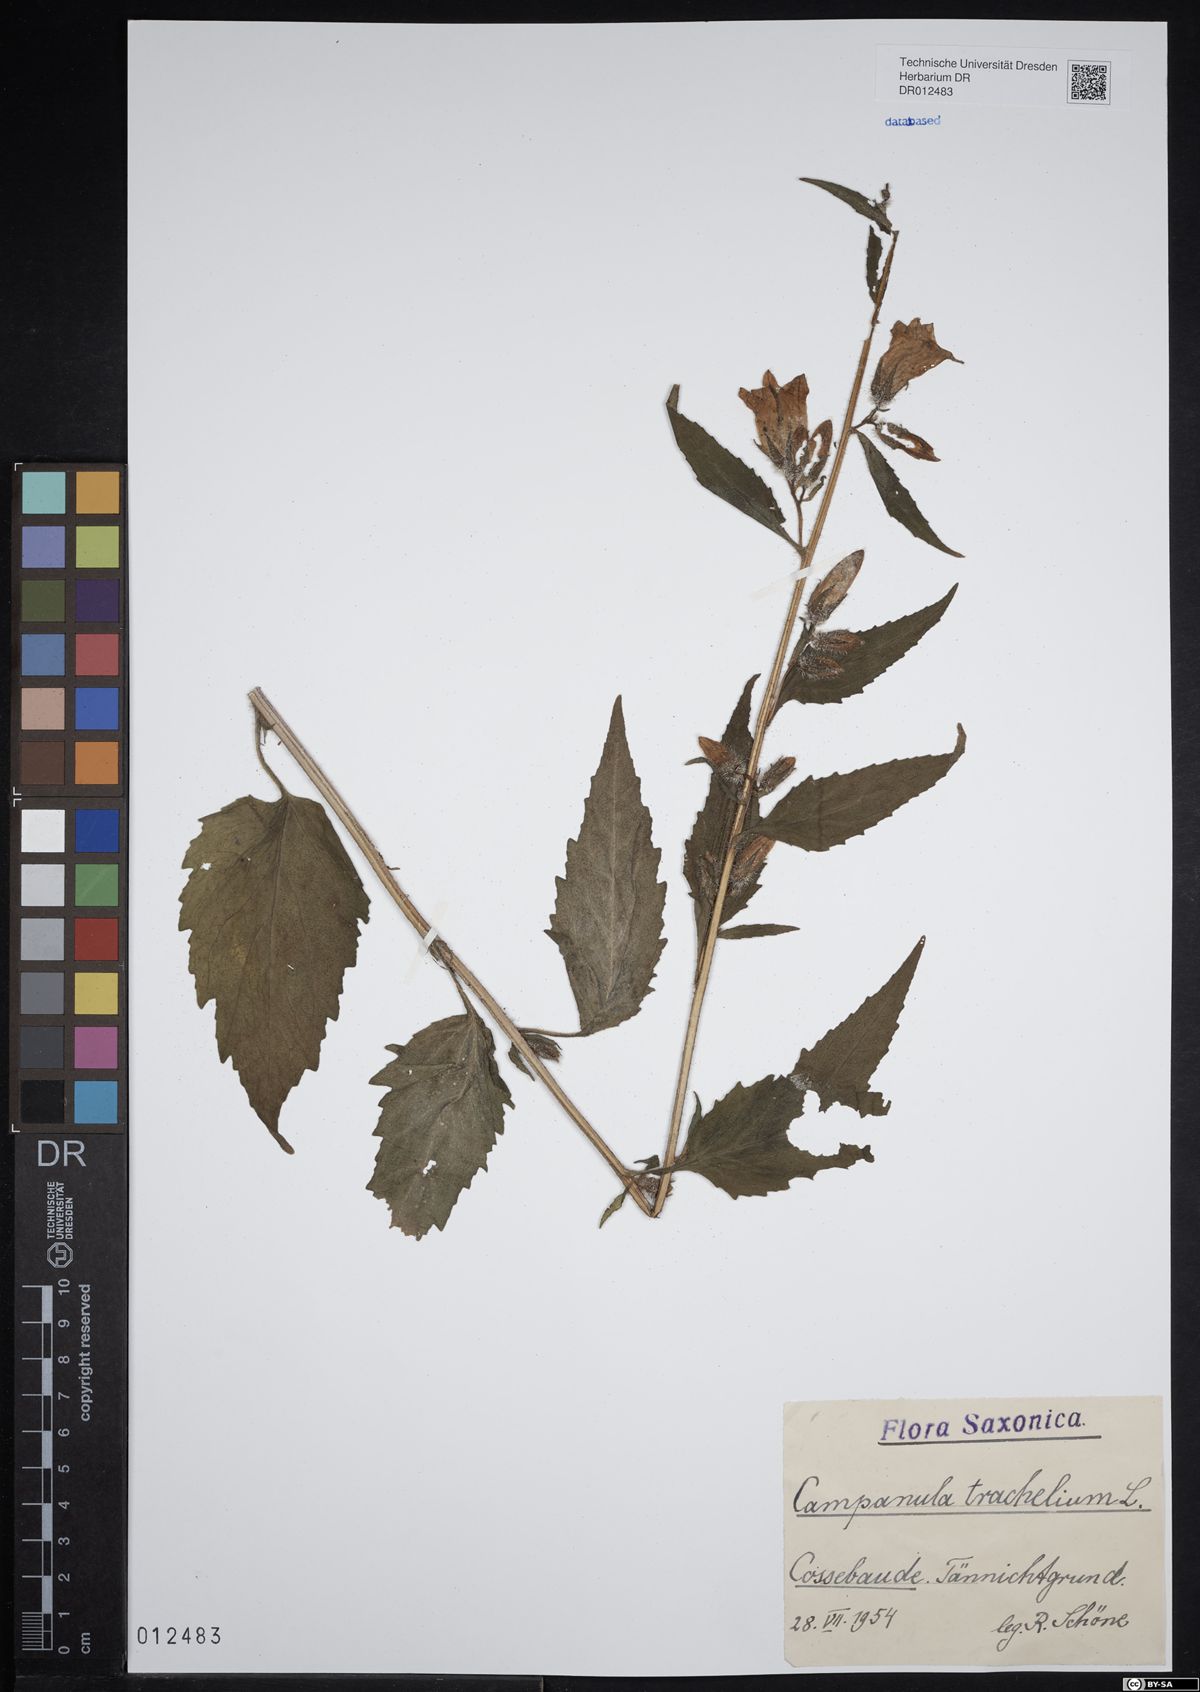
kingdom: Plantae
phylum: Tracheophyta
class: Magnoliopsida
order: Asterales
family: Campanulaceae
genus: Campanula
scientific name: Campanula trachelium
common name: Nettle-leaved bellflower
